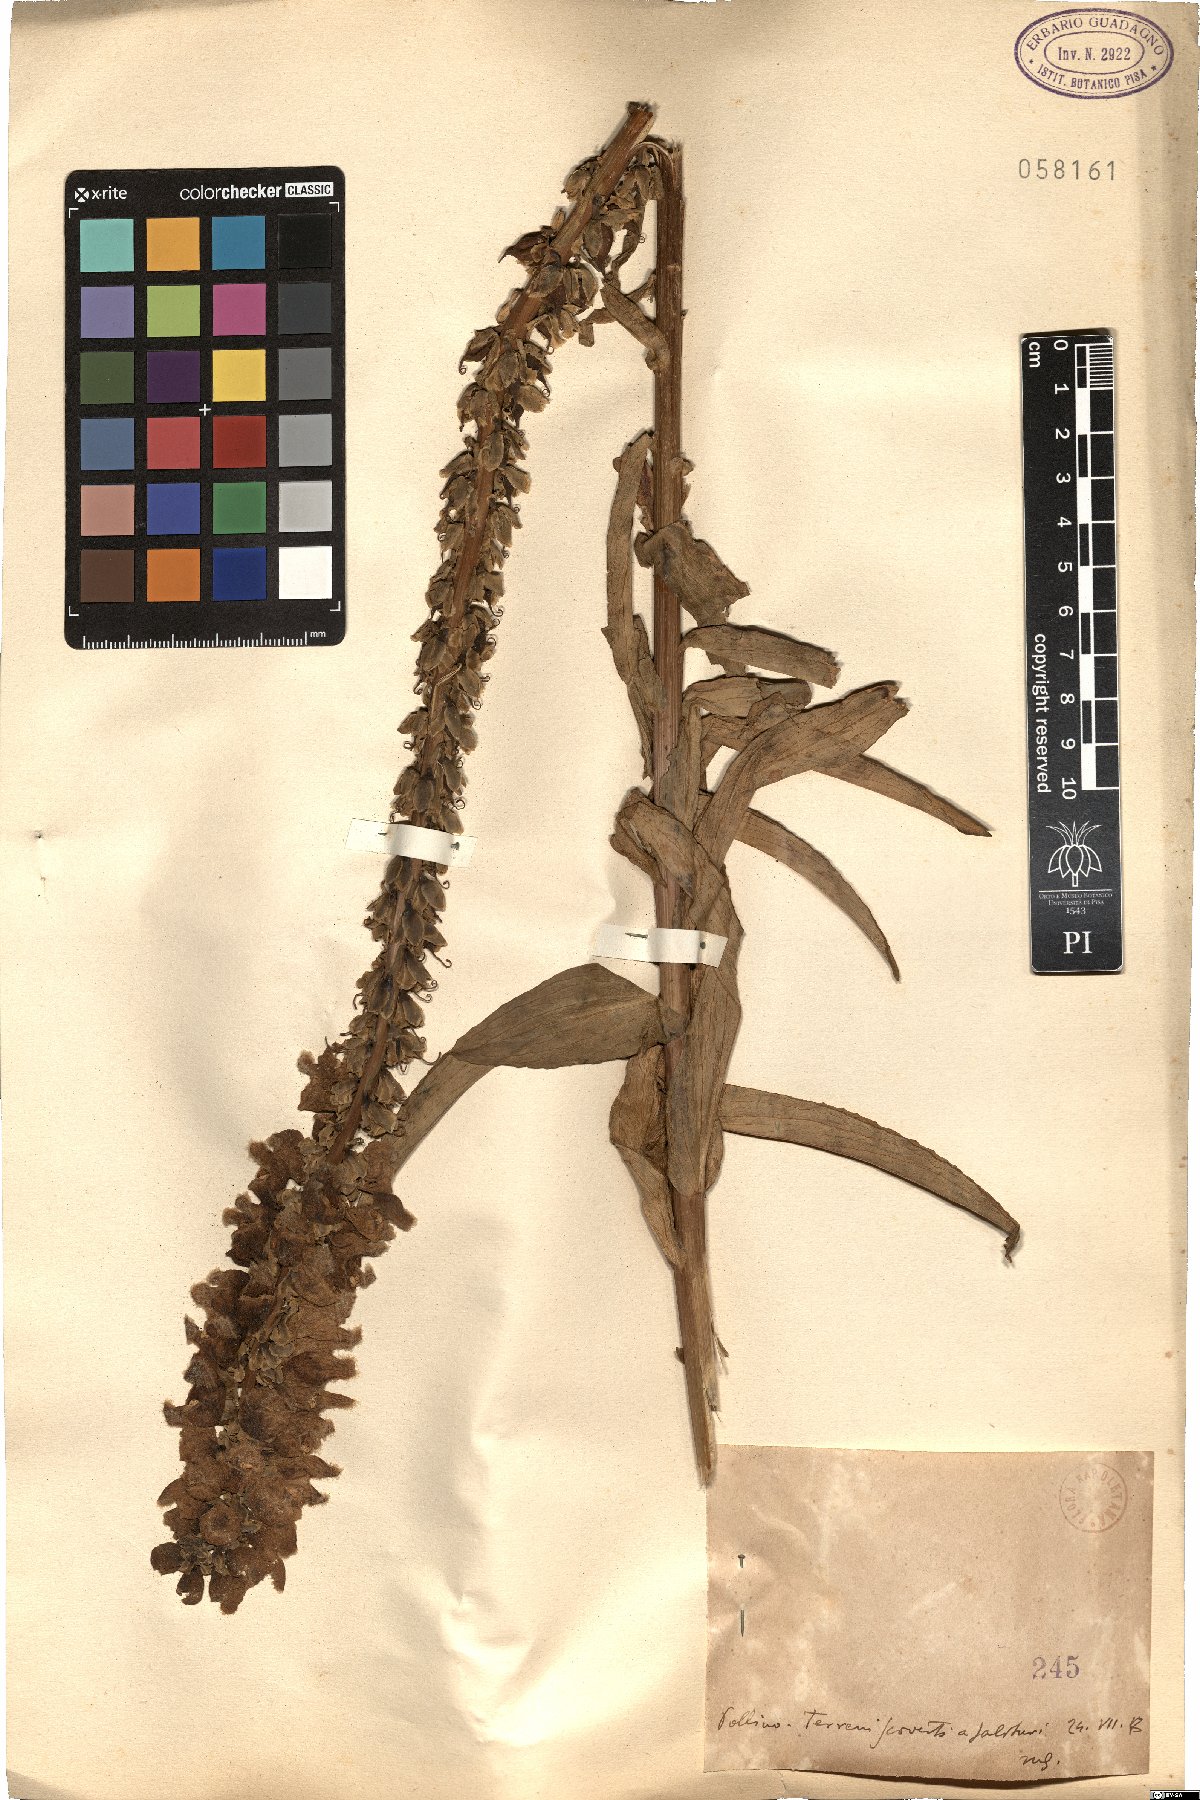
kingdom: Plantae
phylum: Tracheophyta
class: Magnoliopsida
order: Lamiales
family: Plantaginaceae
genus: Digitalis
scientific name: Digitalis
